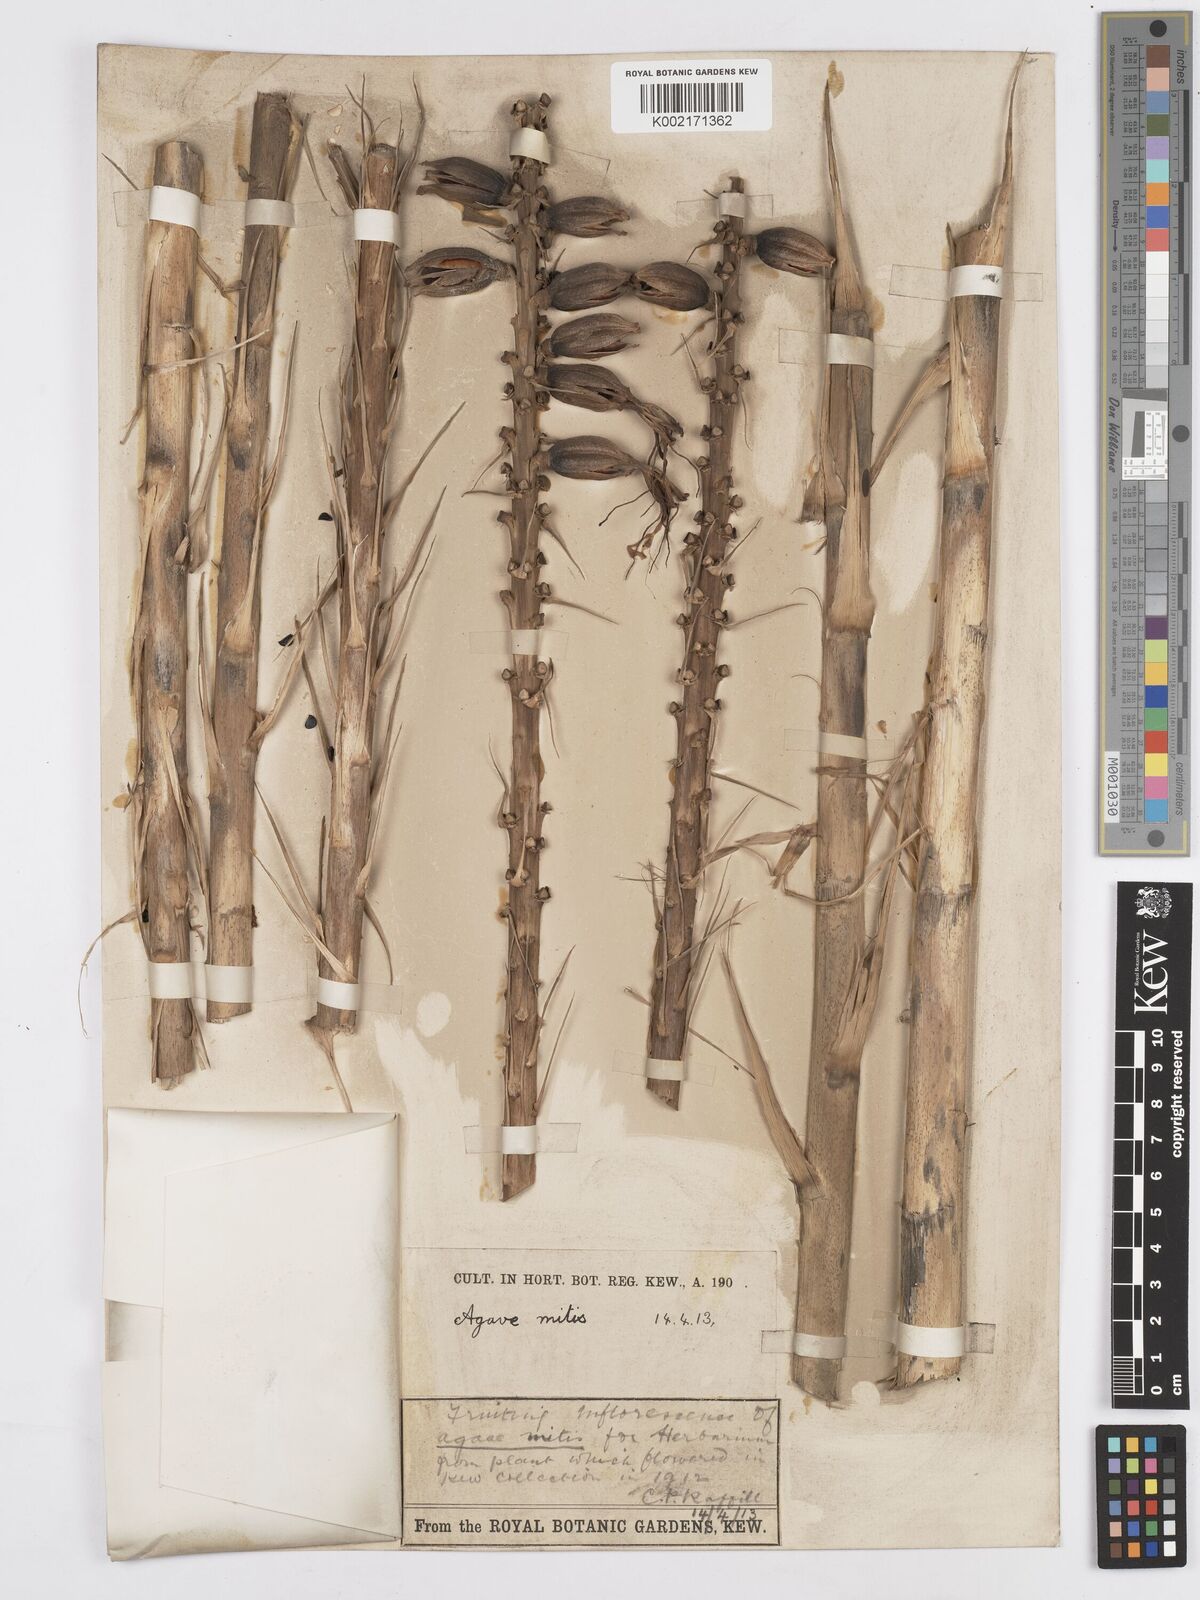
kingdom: Plantae
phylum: Tracheophyta
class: Liliopsida
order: Asparagales
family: Asparagaceae
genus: Agave
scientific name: Agave mitis
